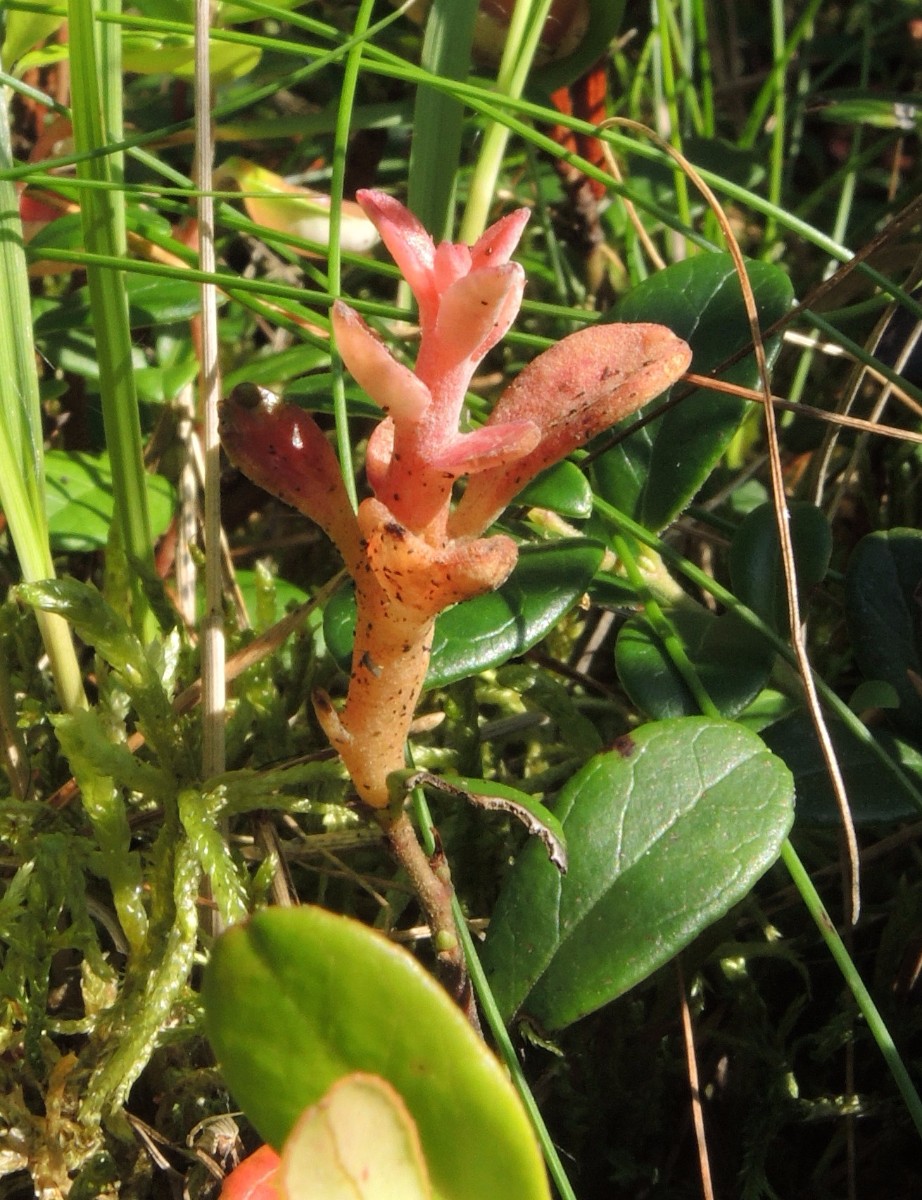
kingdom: Fungi
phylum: Basidiomycota
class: Exobasidiomycetes
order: Exobasidiales
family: Exobasidiaceae
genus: Exobasidium
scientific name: Exobasidium vaccinii
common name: tyttebærblad-bøllesvamp
